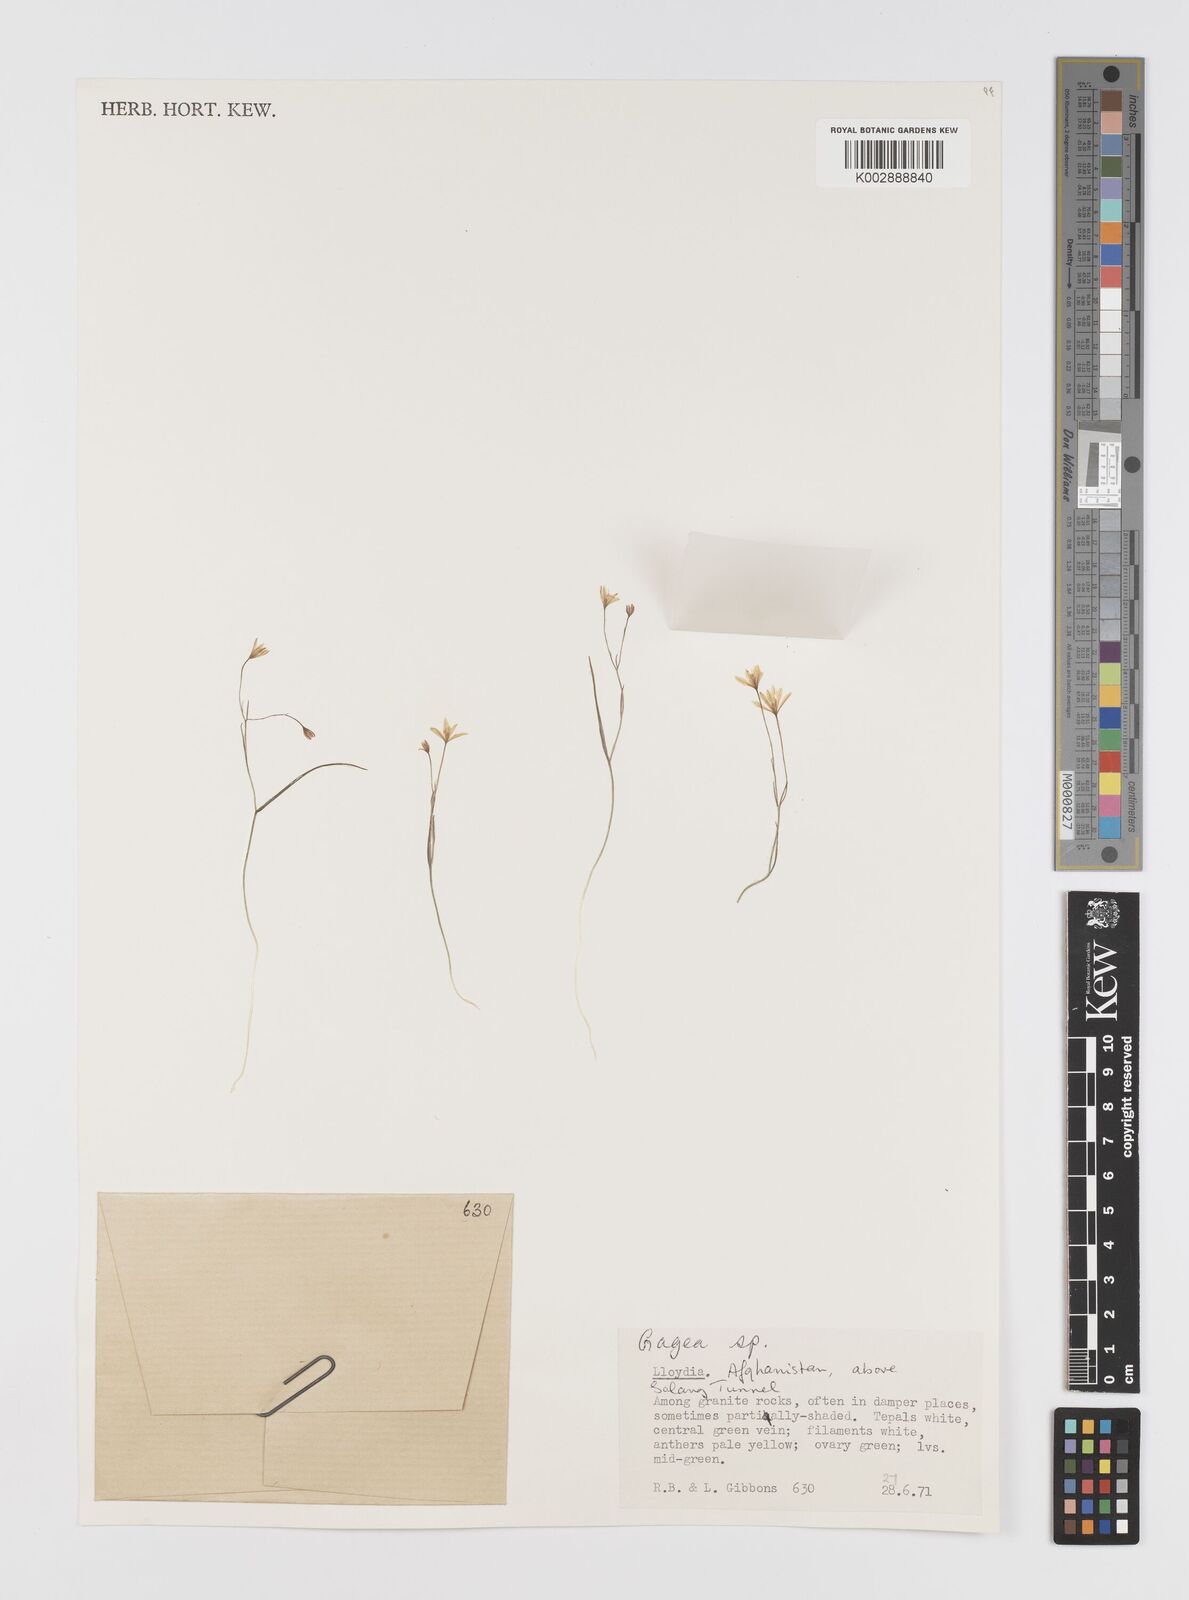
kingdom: Plantae
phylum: Tracheophyta
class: Liliopsida
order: Liliales
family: Liliaceae
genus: Gagea
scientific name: Gagea
